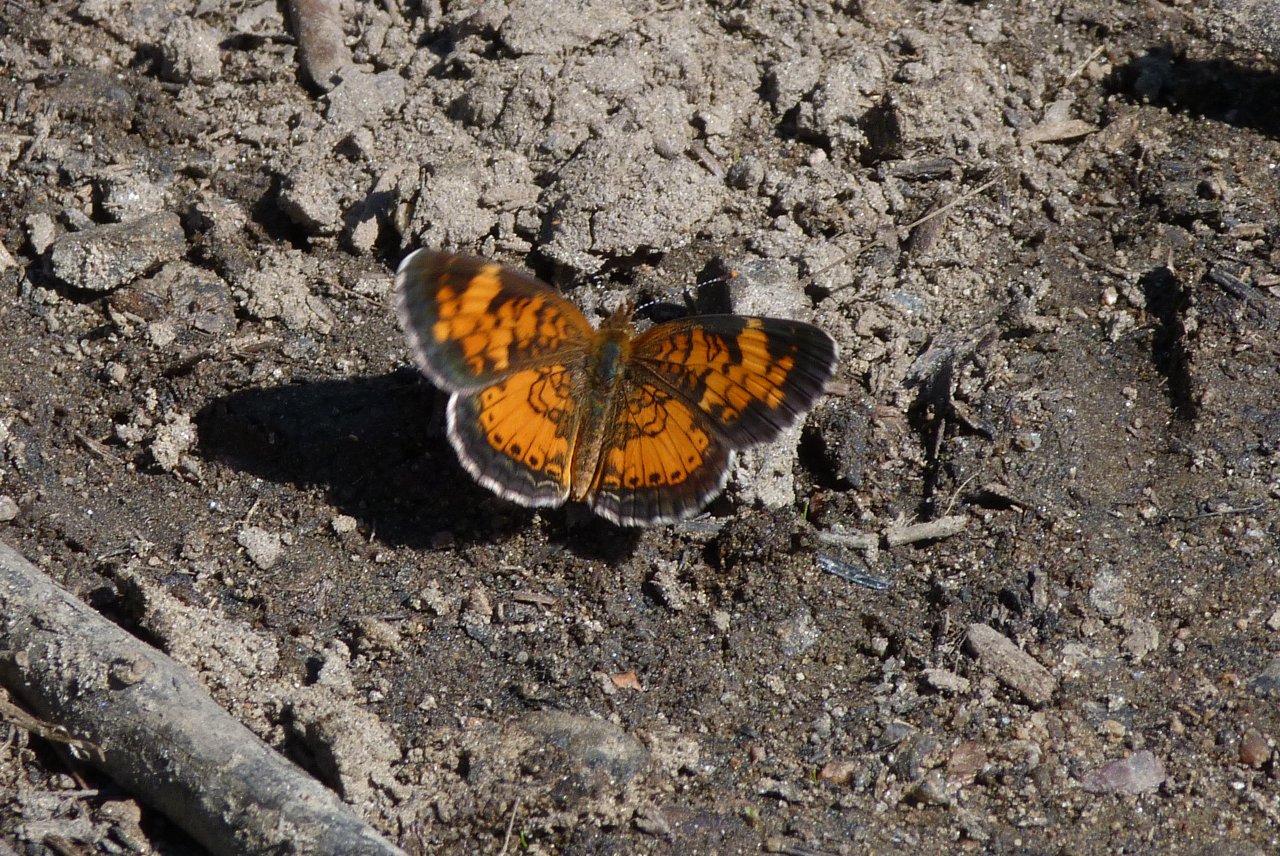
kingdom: Animalia
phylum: Arthropoda
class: Insecta
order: Lepidoptera
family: Nymphalidae
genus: Phyciodes
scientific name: Phyciodes tharos
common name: Northern Crescent
